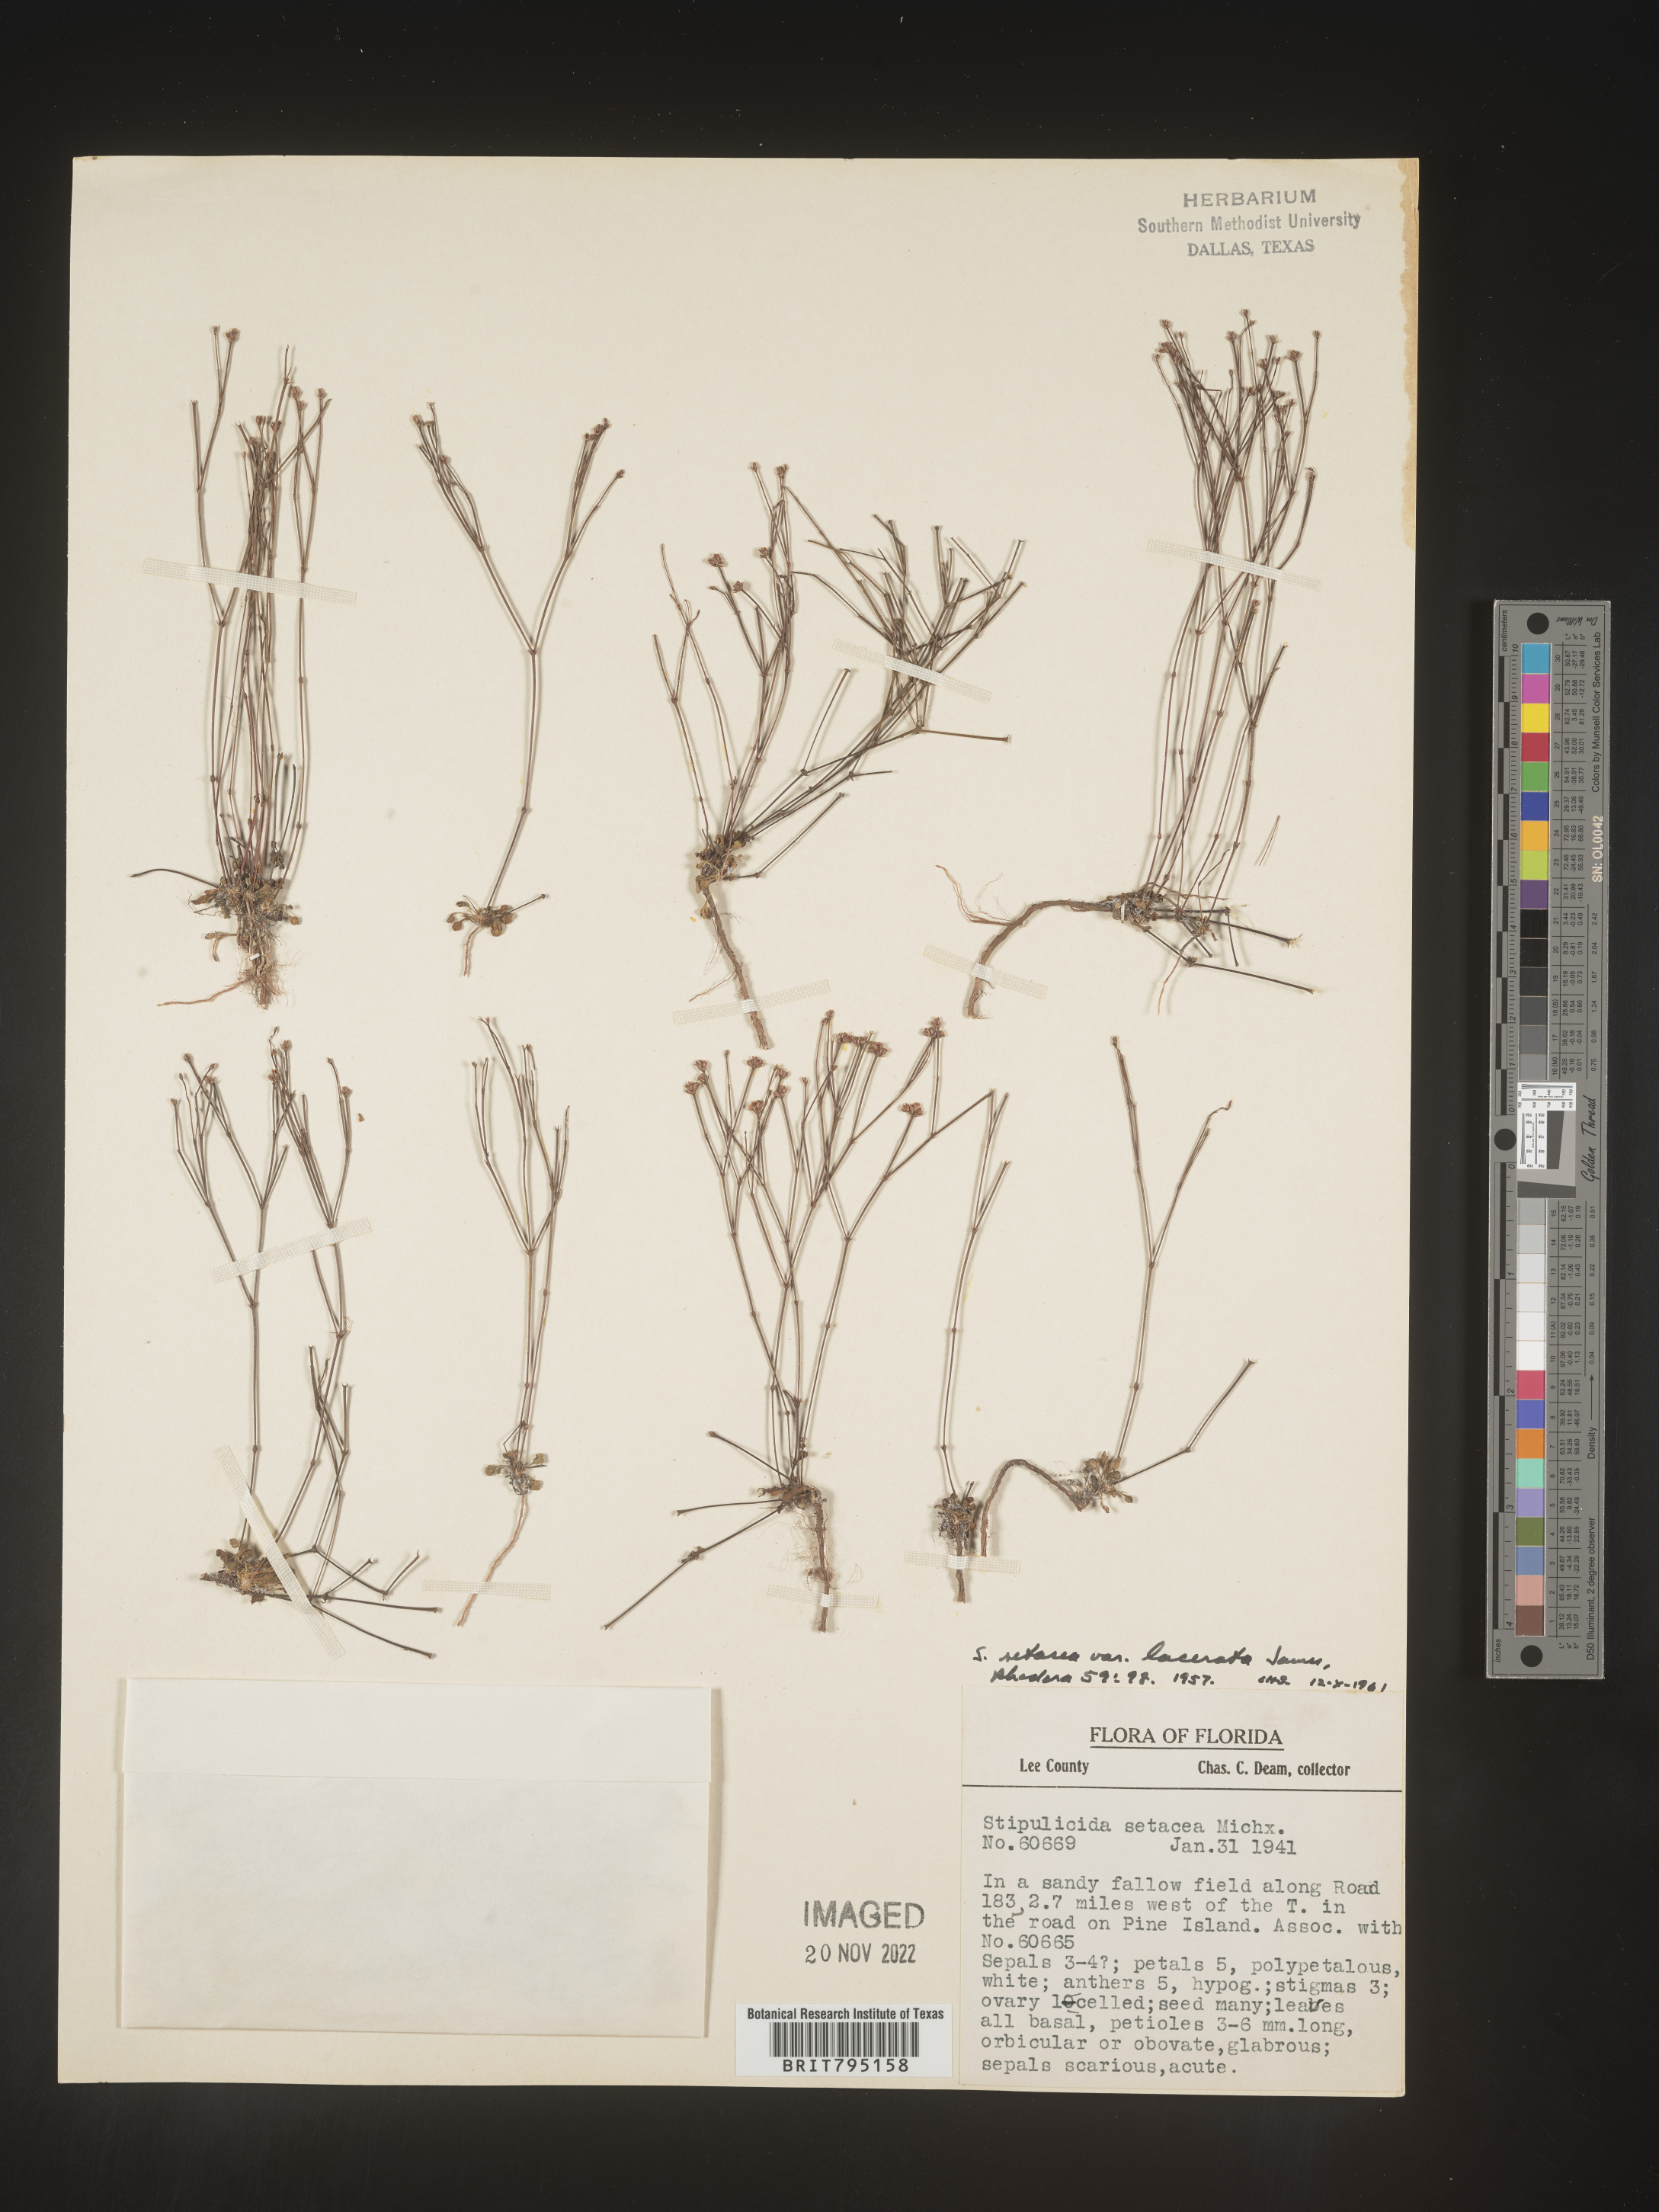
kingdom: Plantae
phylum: Tracheophyta
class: Magnoliopsida
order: Caryophyllales
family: Caryophyllaceae
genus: Stipulicida
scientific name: Stipulicida
